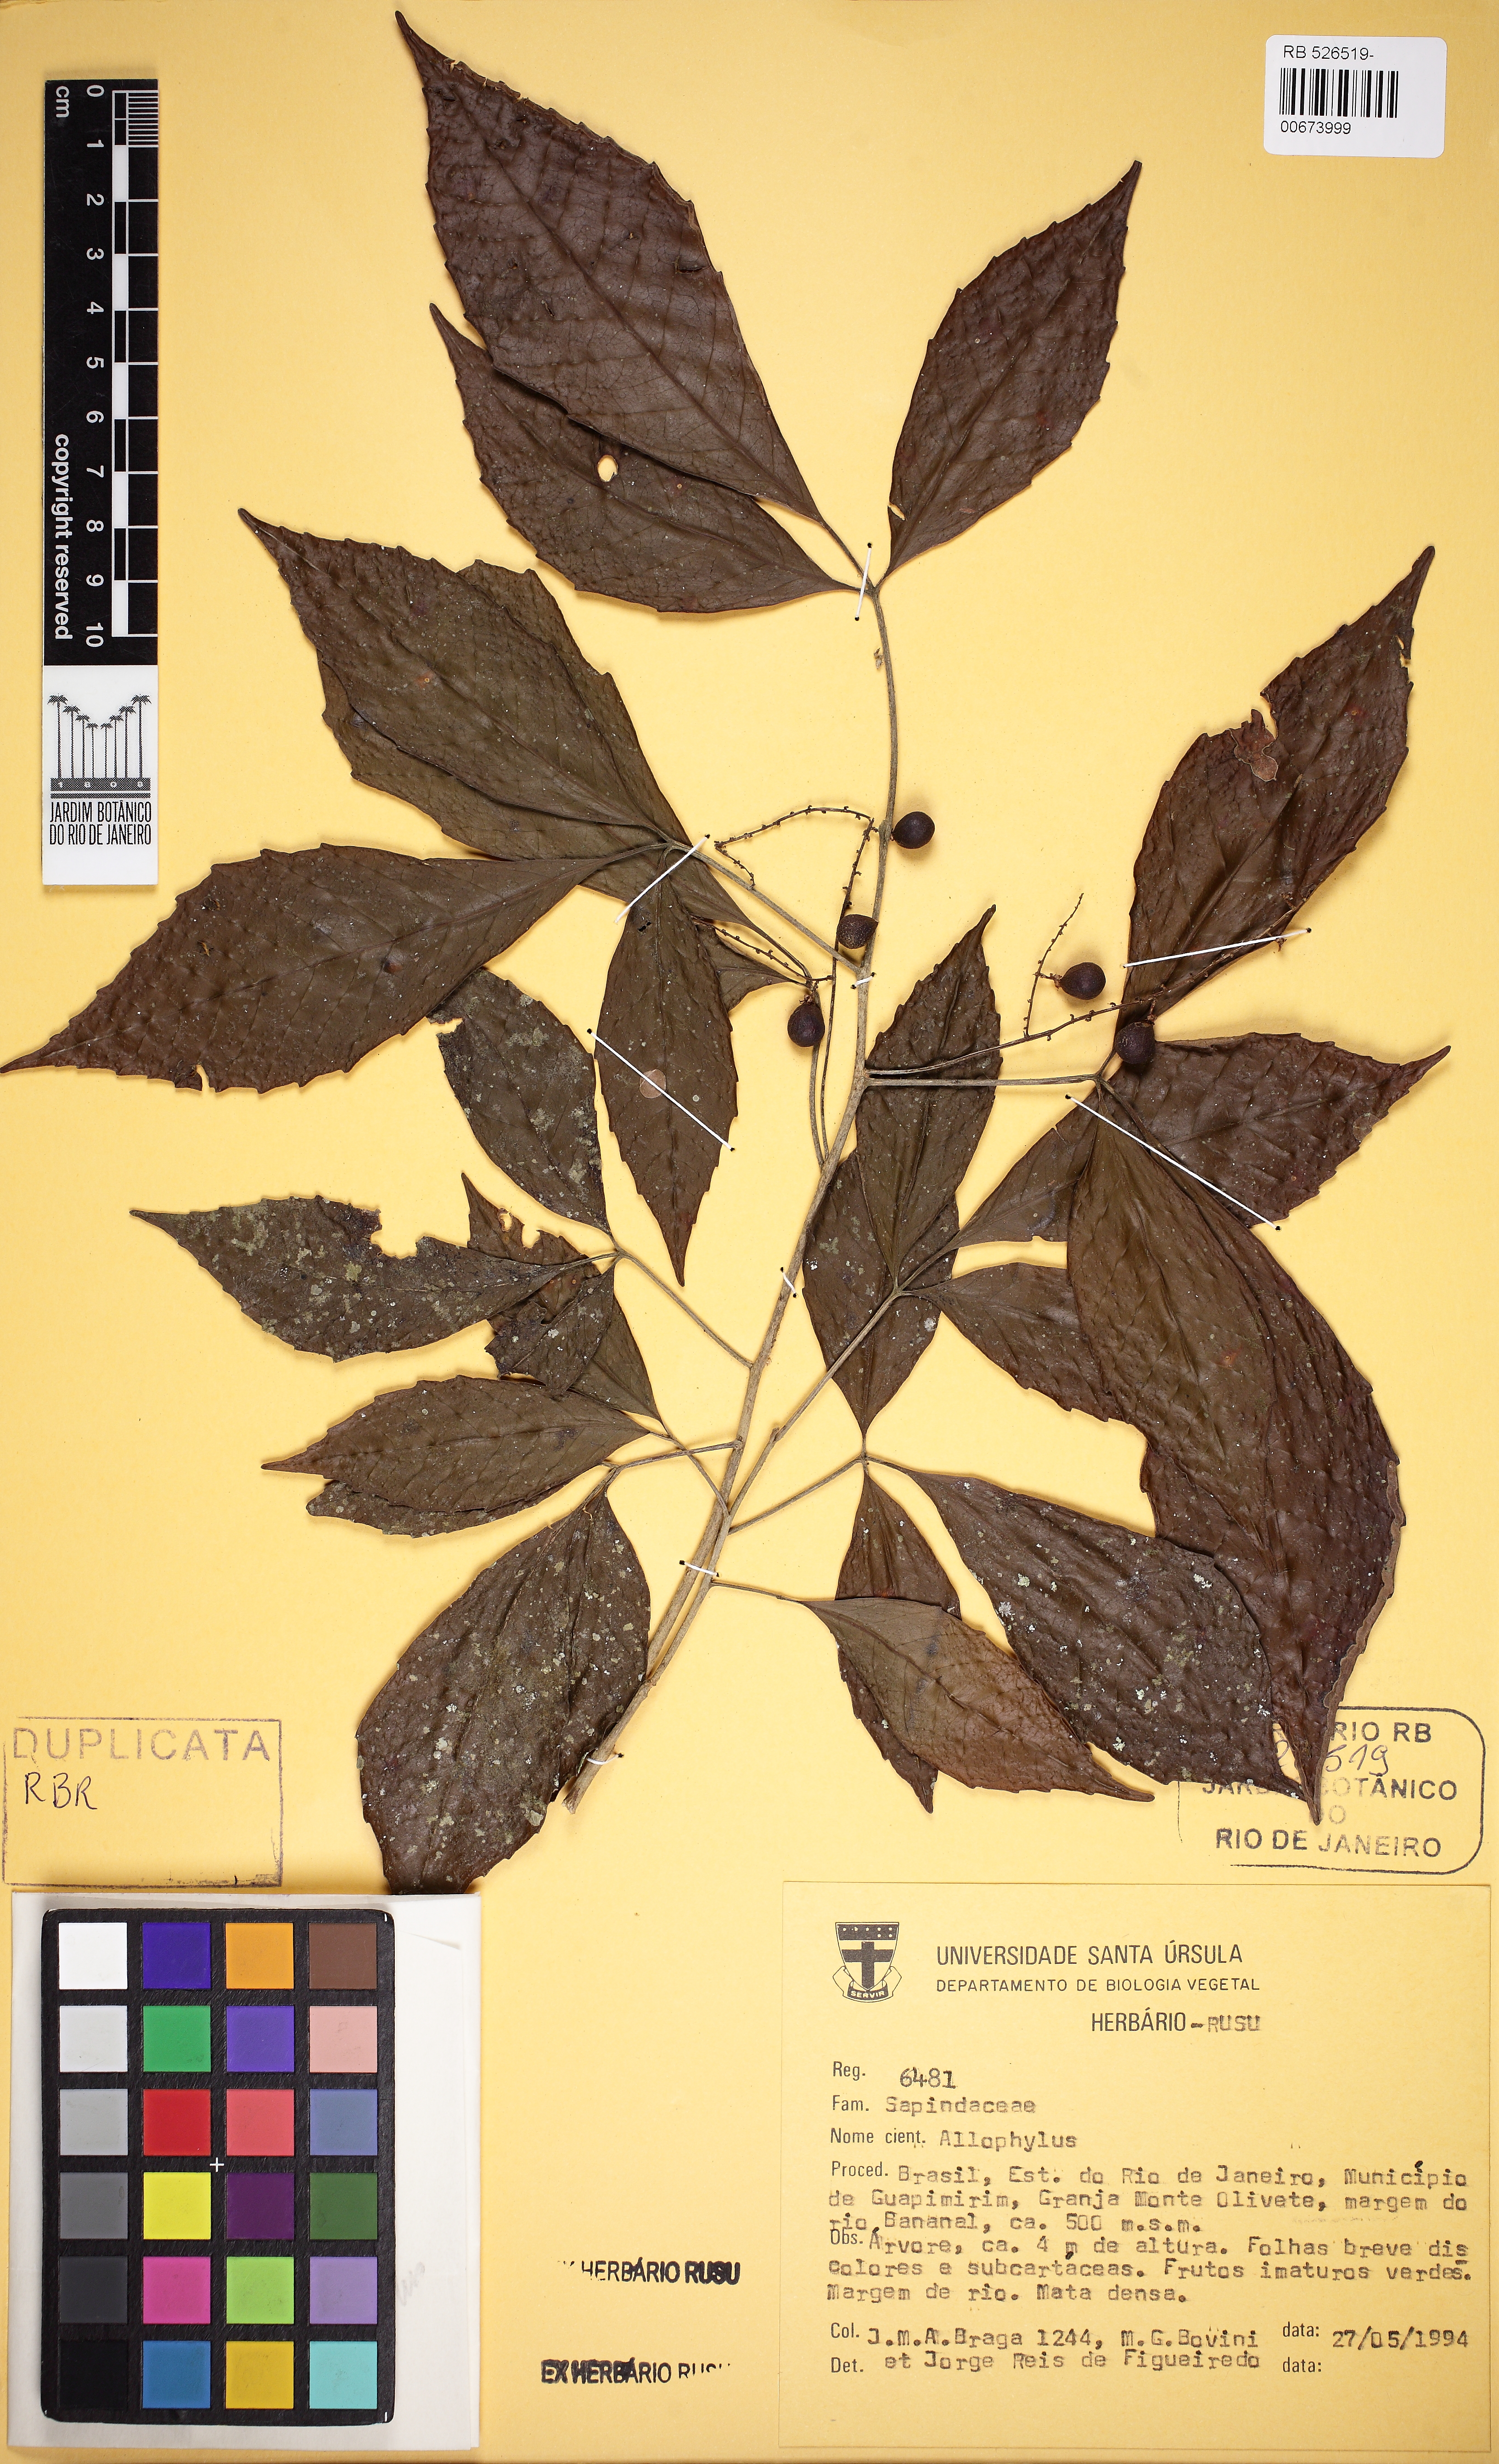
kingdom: Plantae
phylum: Tracheophyta
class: Magnoliopsida
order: Sapindales
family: Sapindaceae
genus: Allophylus
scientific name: Allophylus petiolulatus
